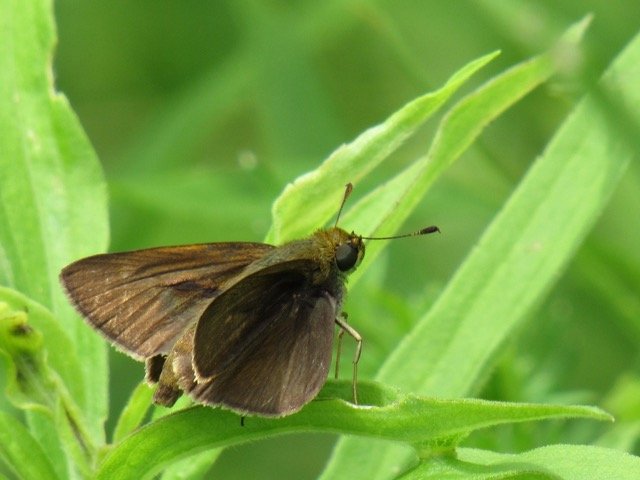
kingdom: Animalia
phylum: Arthropoda
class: Insecta
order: Lepidoptera
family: Hesperiidae
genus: Polites
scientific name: Polites egeremet
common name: Northern Broken-Dash
